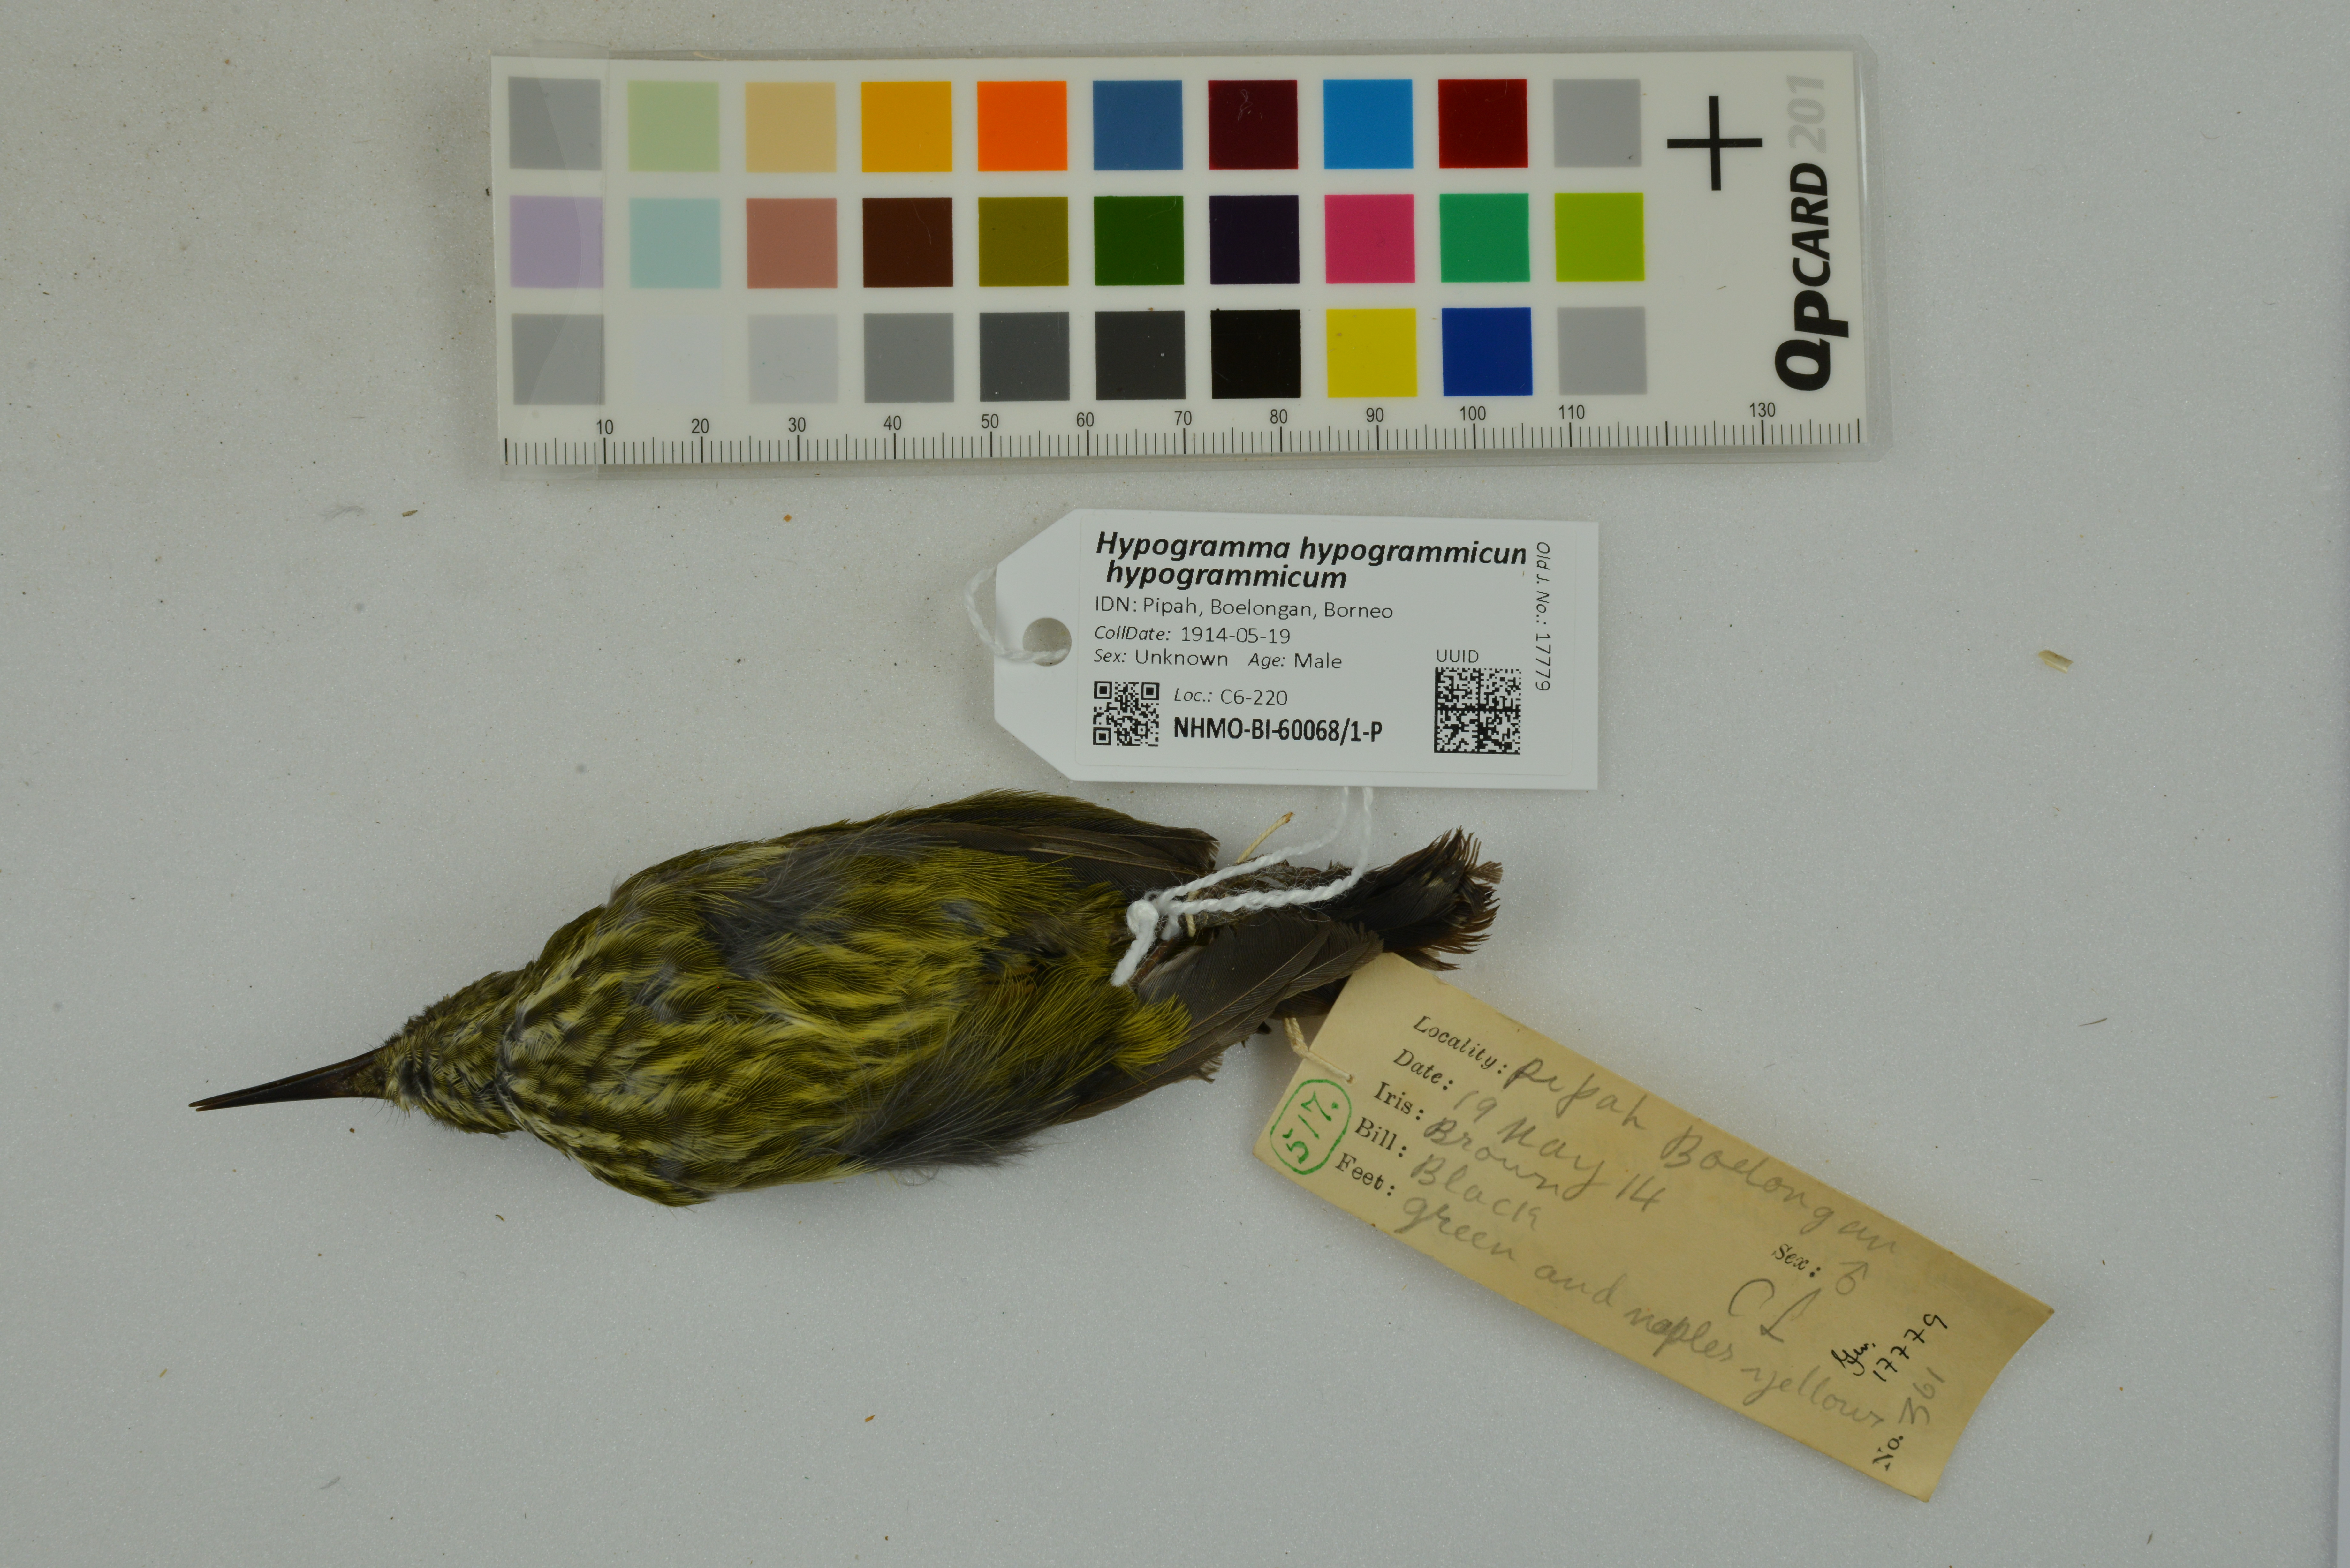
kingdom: Animalia
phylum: Chordata
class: Aves
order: Passeriformes
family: Nectariniidae
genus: Hypogramma
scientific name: Hypogramma hypogrammicum
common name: Purple-naped sunbird
